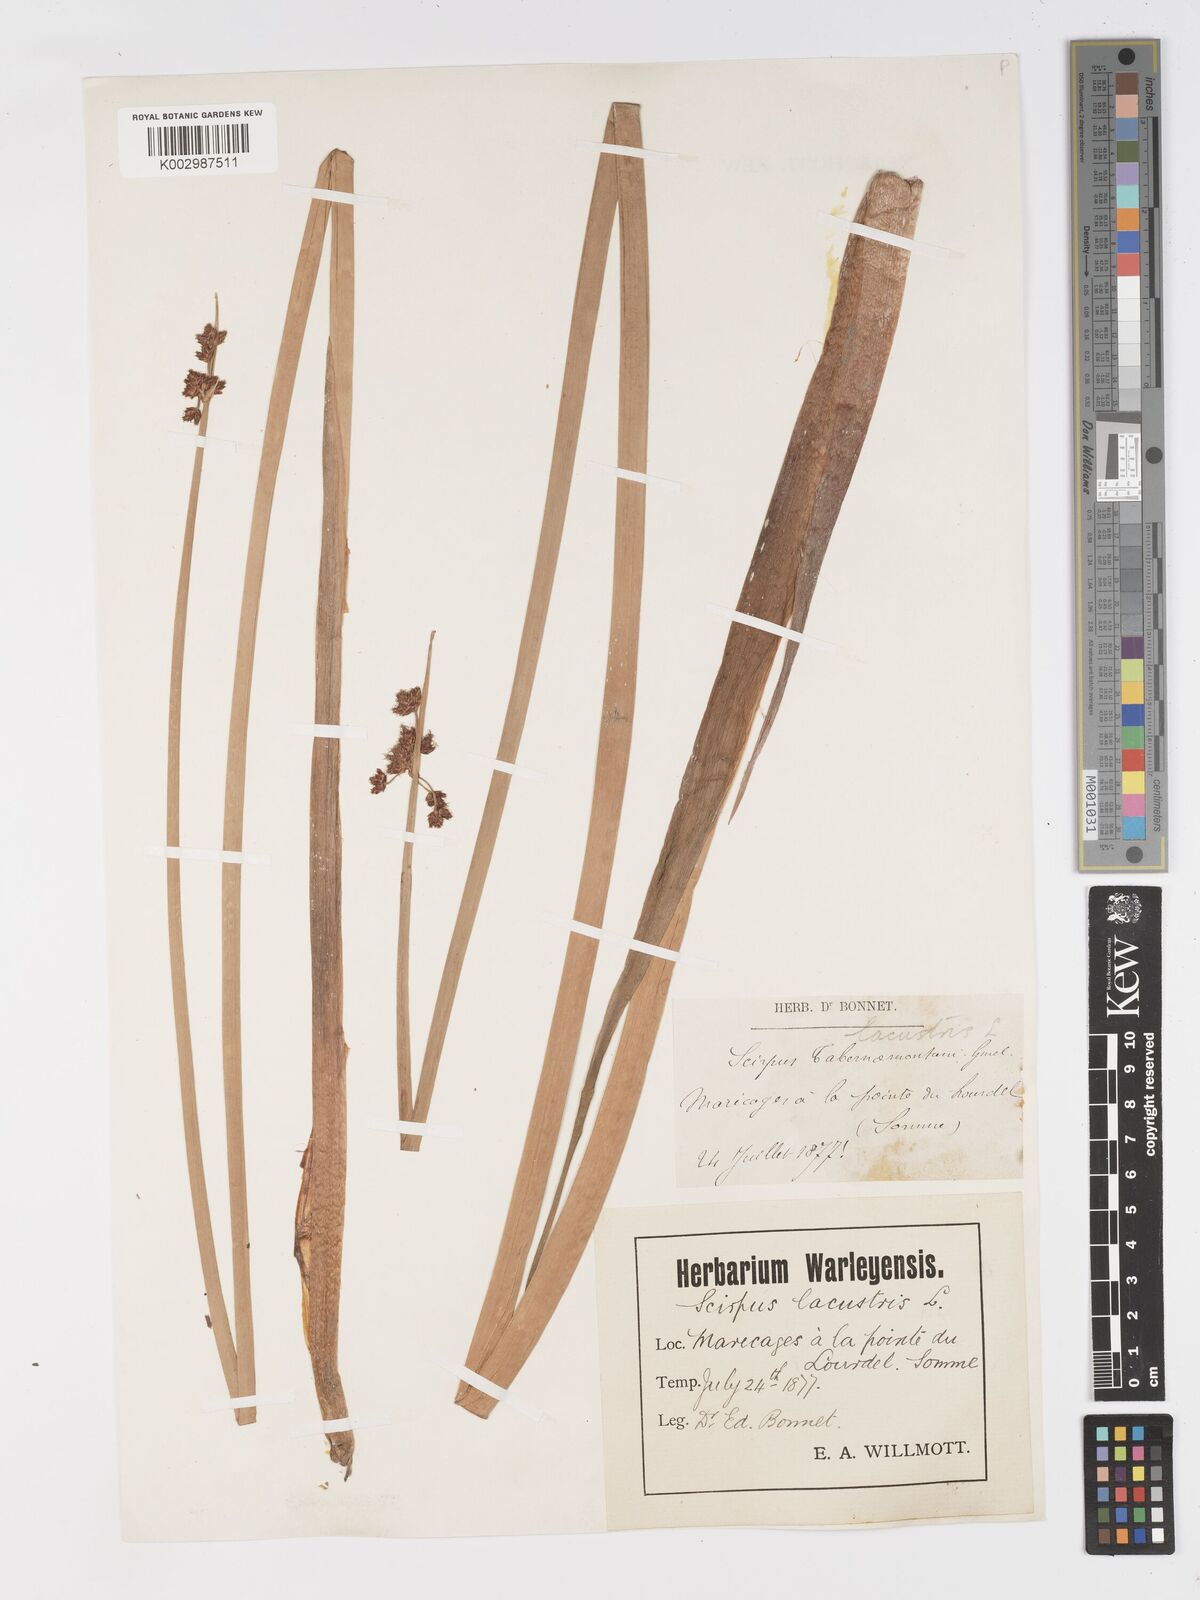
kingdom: Plantae
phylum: Tracheophyta
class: Liliopsida
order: Poales
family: Cyperaceae
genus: Schoenoplectus
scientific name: Schoenoplectus lacustris
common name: Common club-rush
